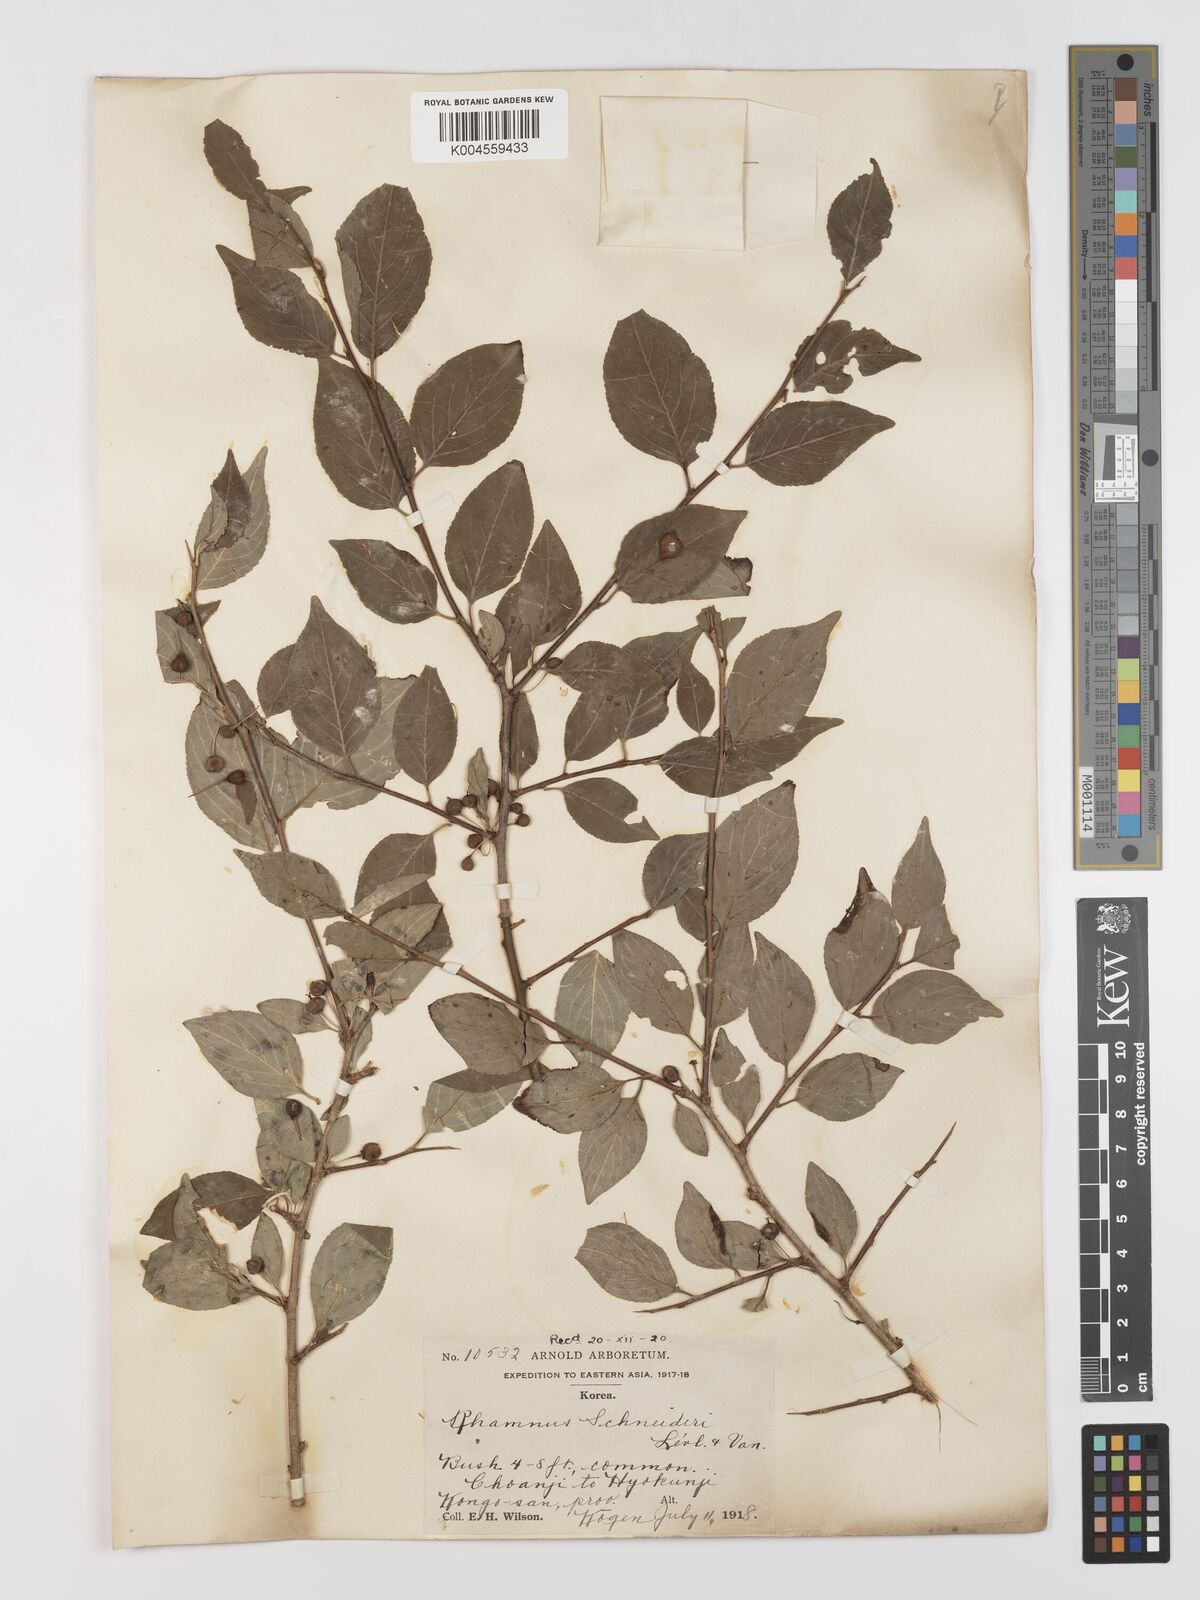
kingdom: Plantae
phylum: Tracheophyta
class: Magnoliopsida
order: Rosales
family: Rhamnaceae
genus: Rhamnus
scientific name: Rhamnus schneideri
